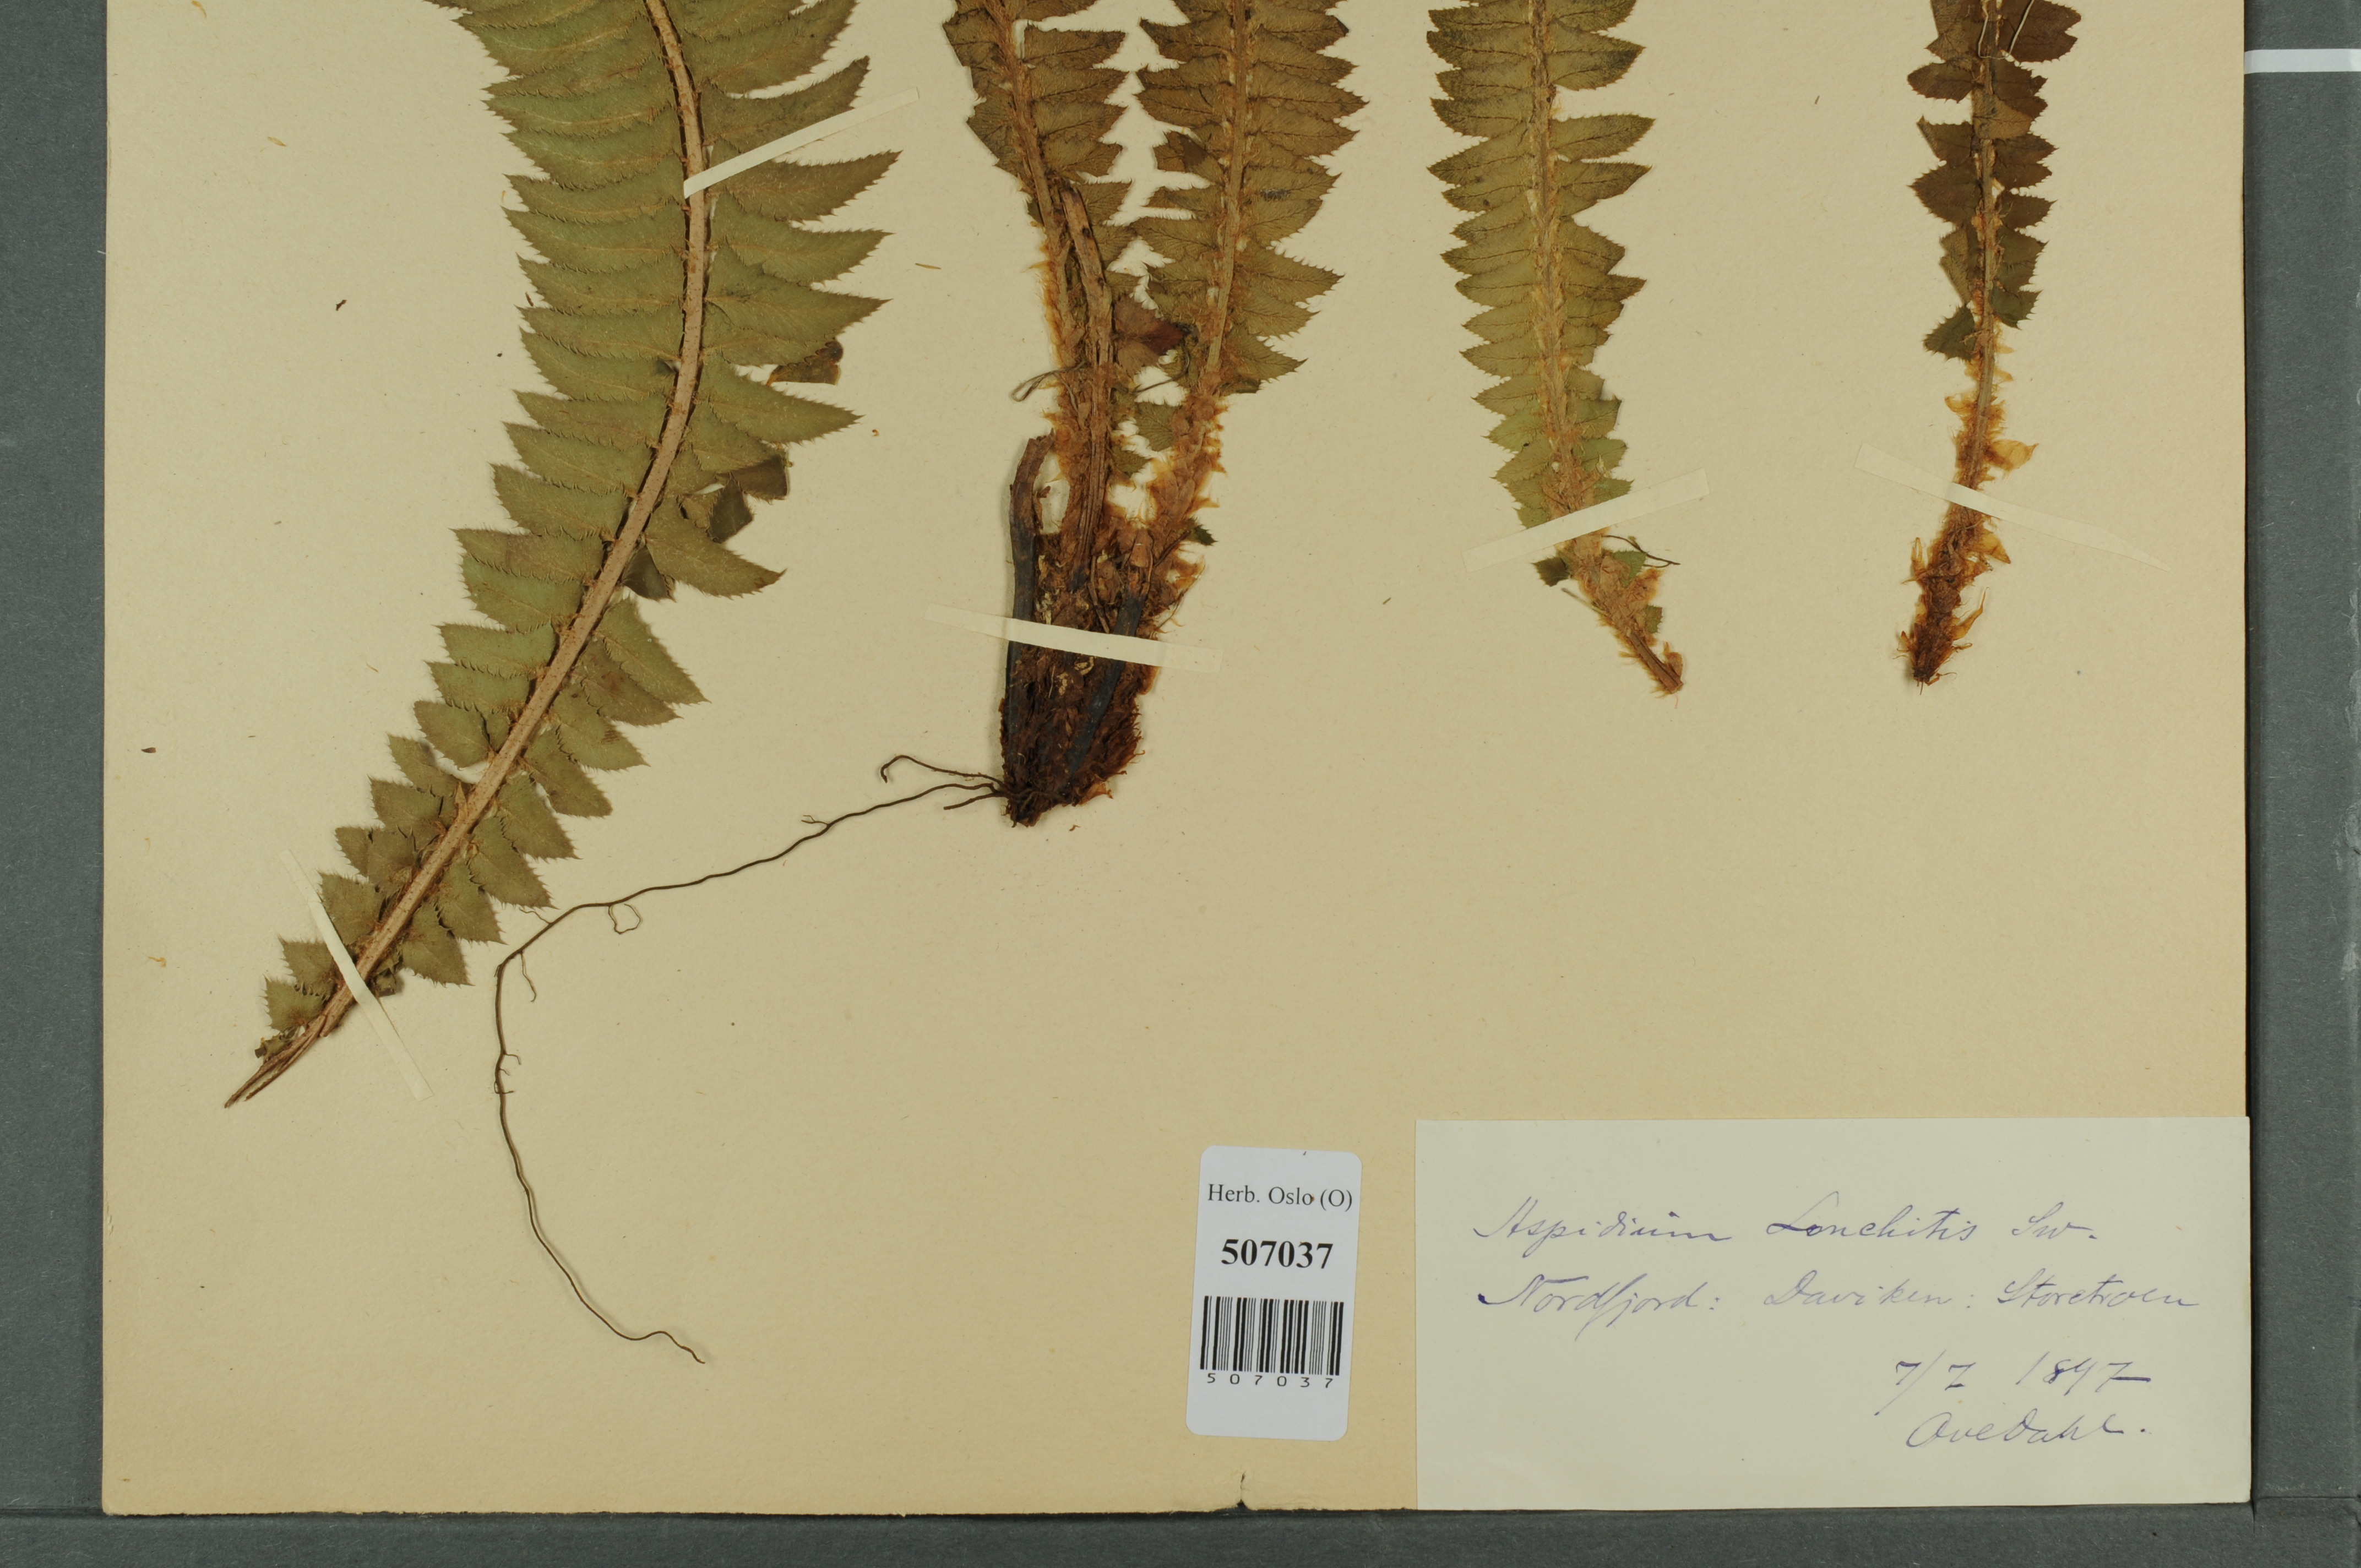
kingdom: Plantae
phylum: Tracheophyta
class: Polypodiopsida
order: Polypodiales
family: Dryopteridaceae
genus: Polystichum
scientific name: Polystichum lonchitis
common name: Holly fern
